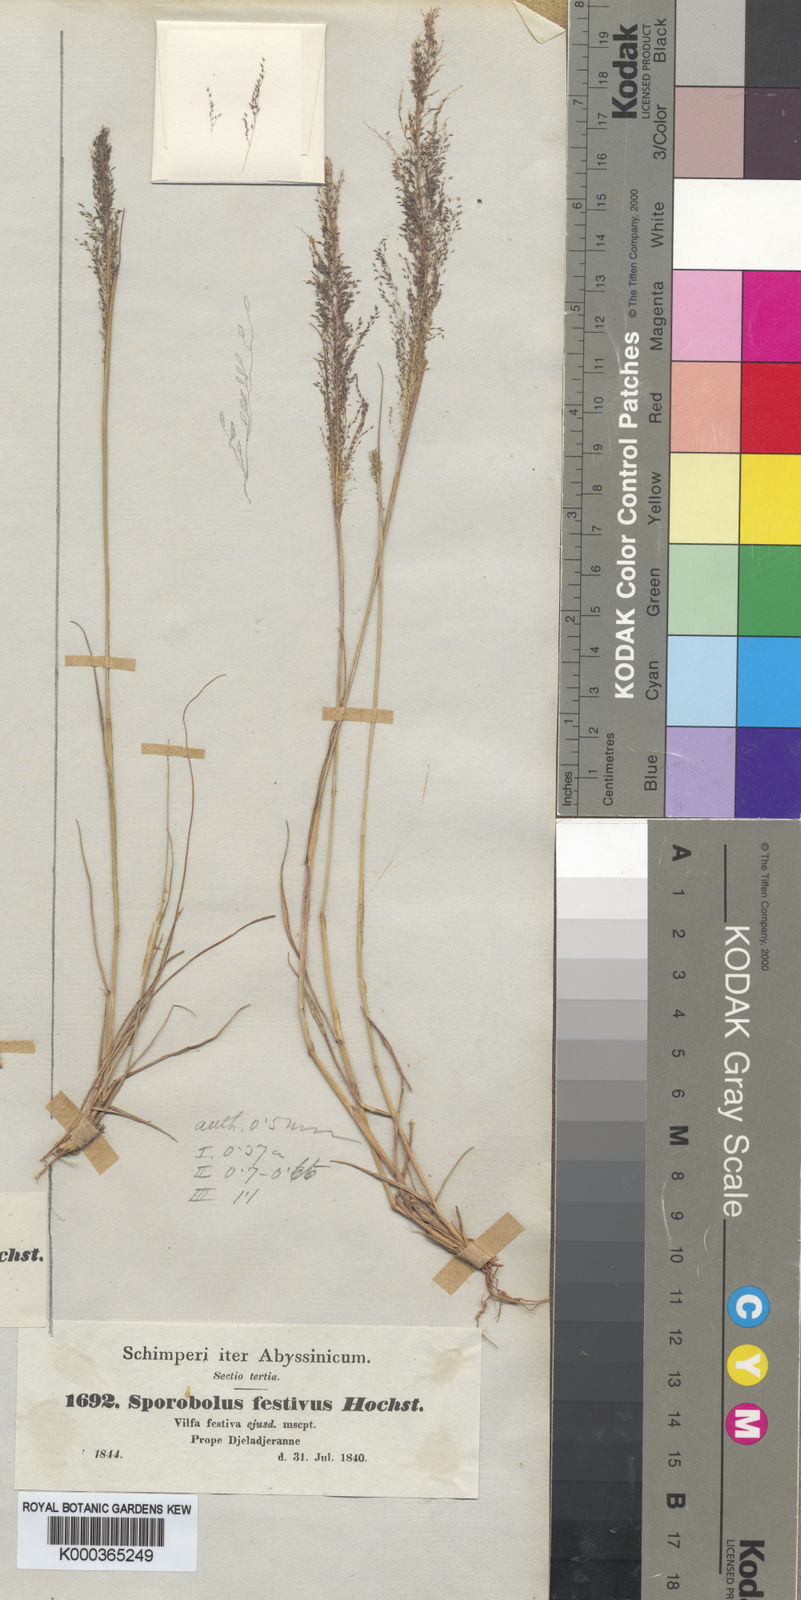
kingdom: Plantae
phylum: Tracheophyta
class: Liliopsida
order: Poales
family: Poaceae
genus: Sporobolus
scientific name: Sporobolus festivus
